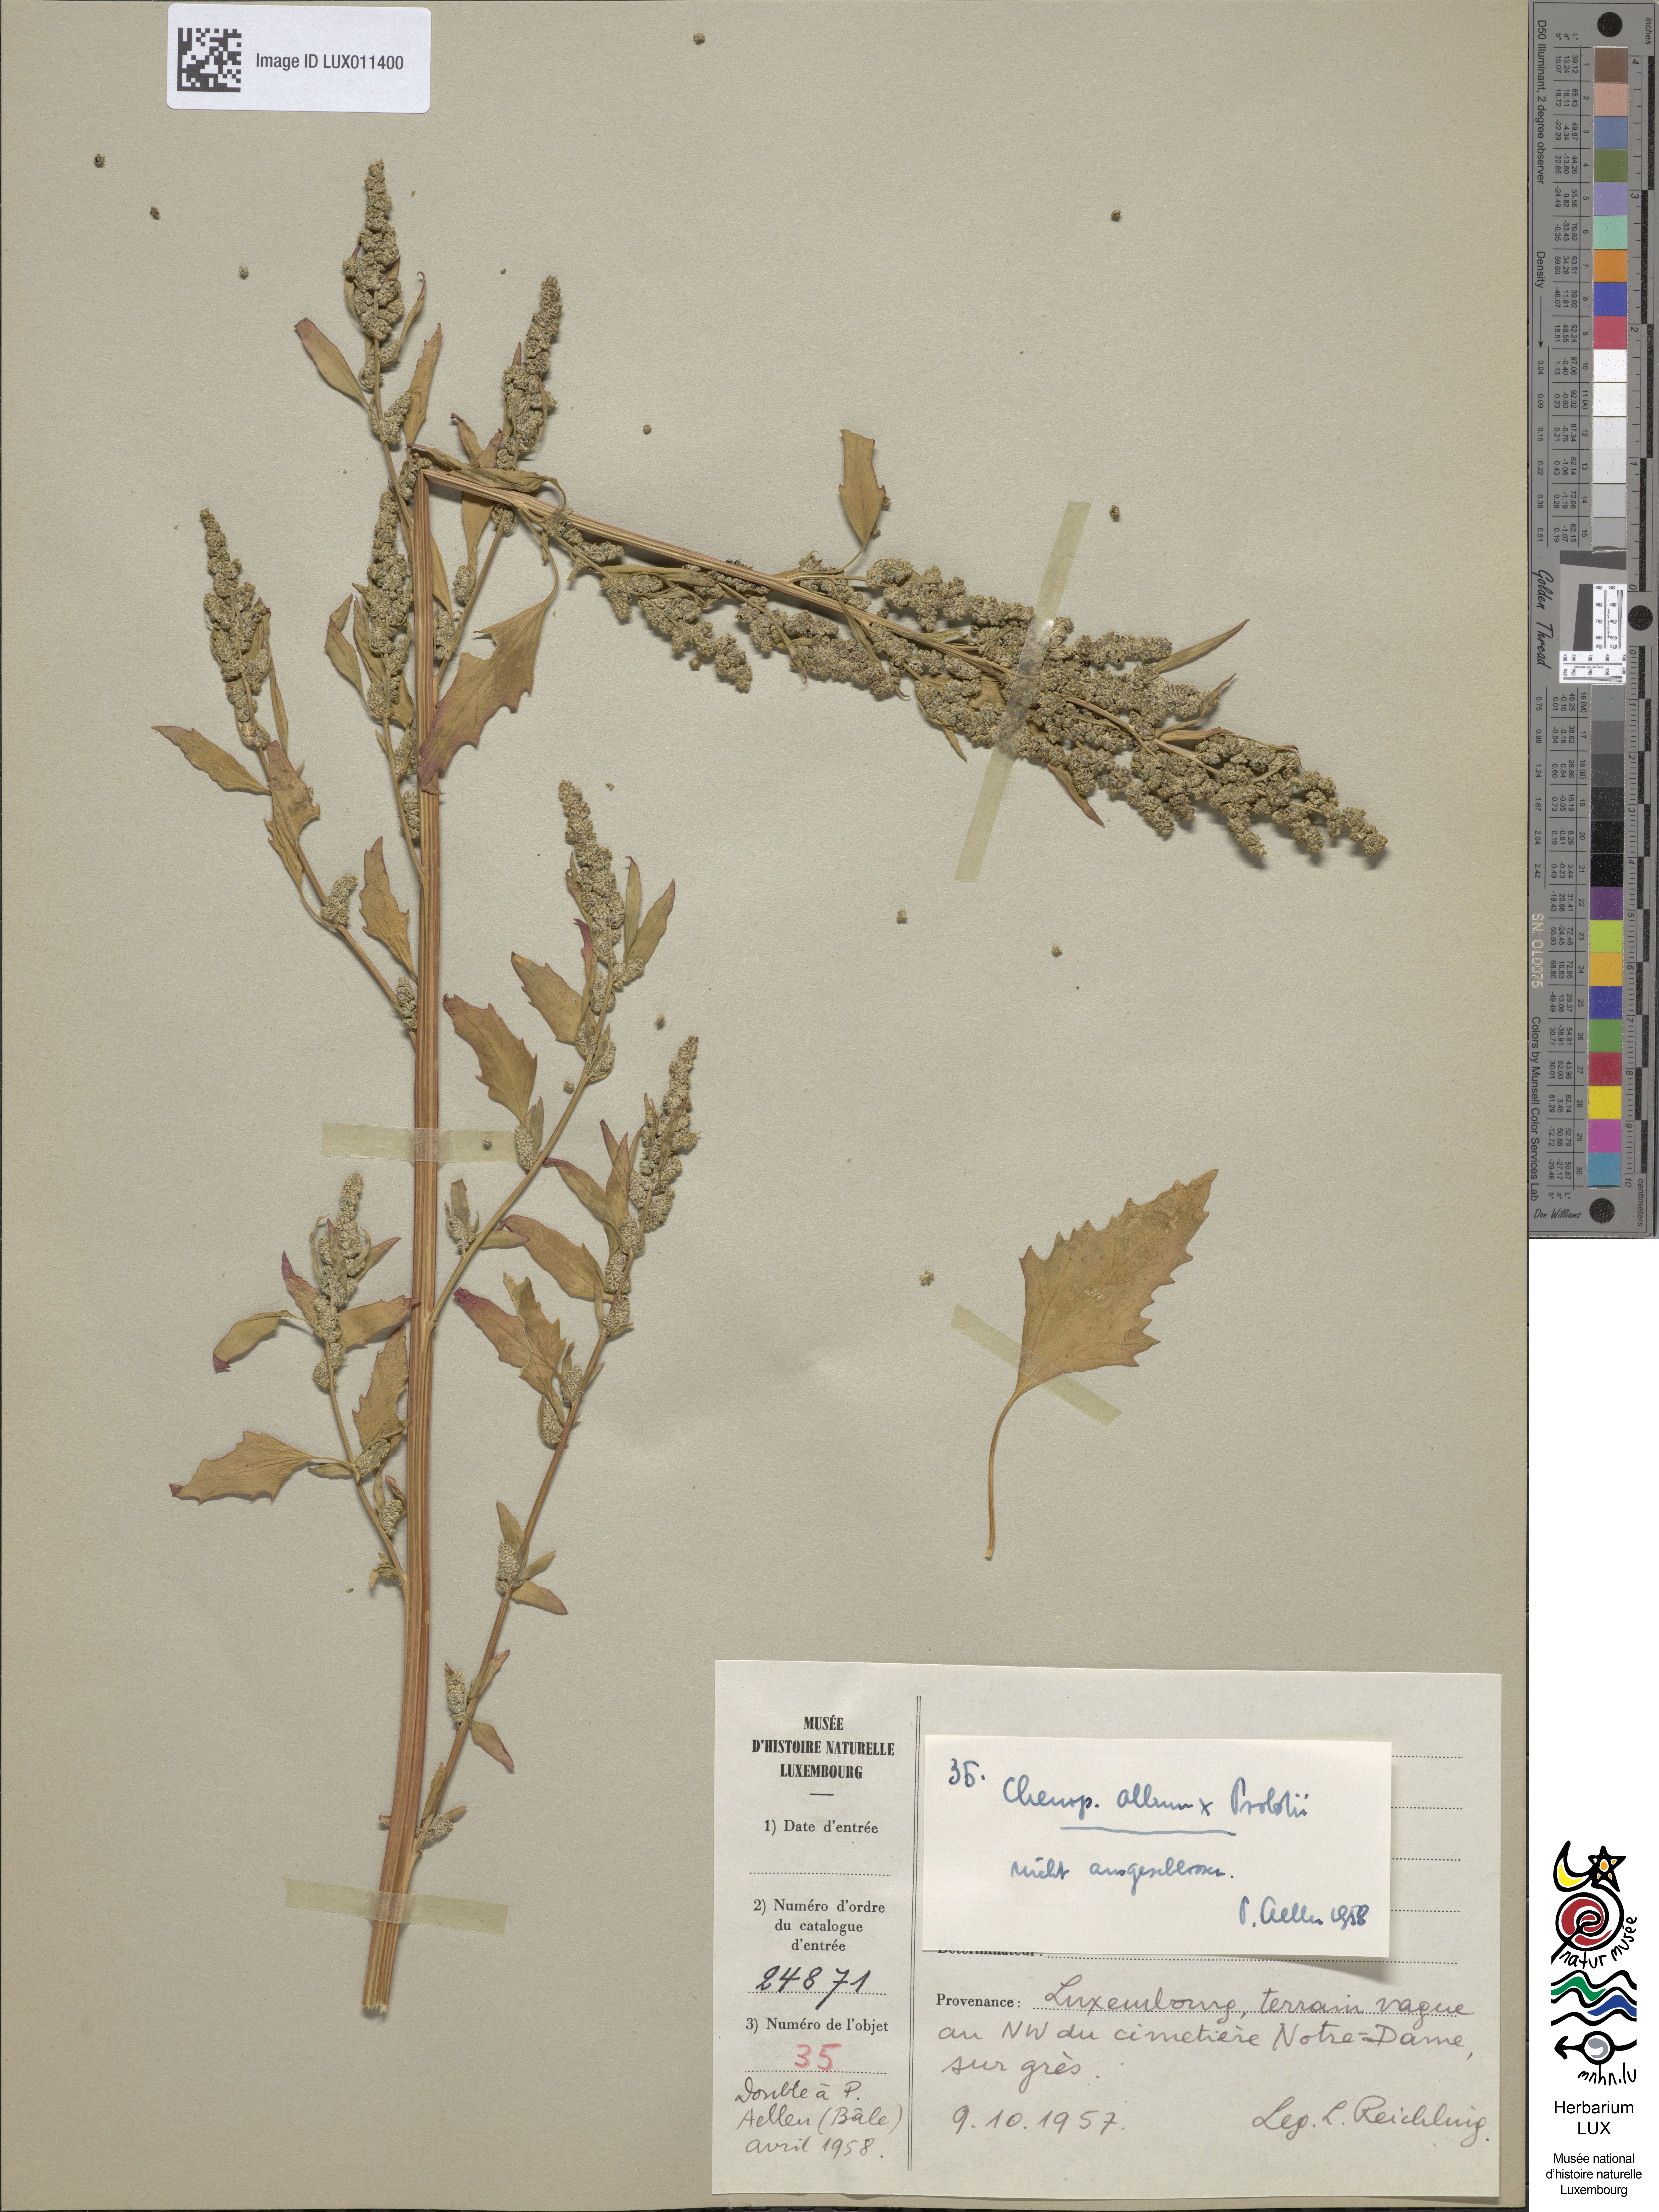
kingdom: Plantae
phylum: Tracheophyta
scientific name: Tracheophyta
